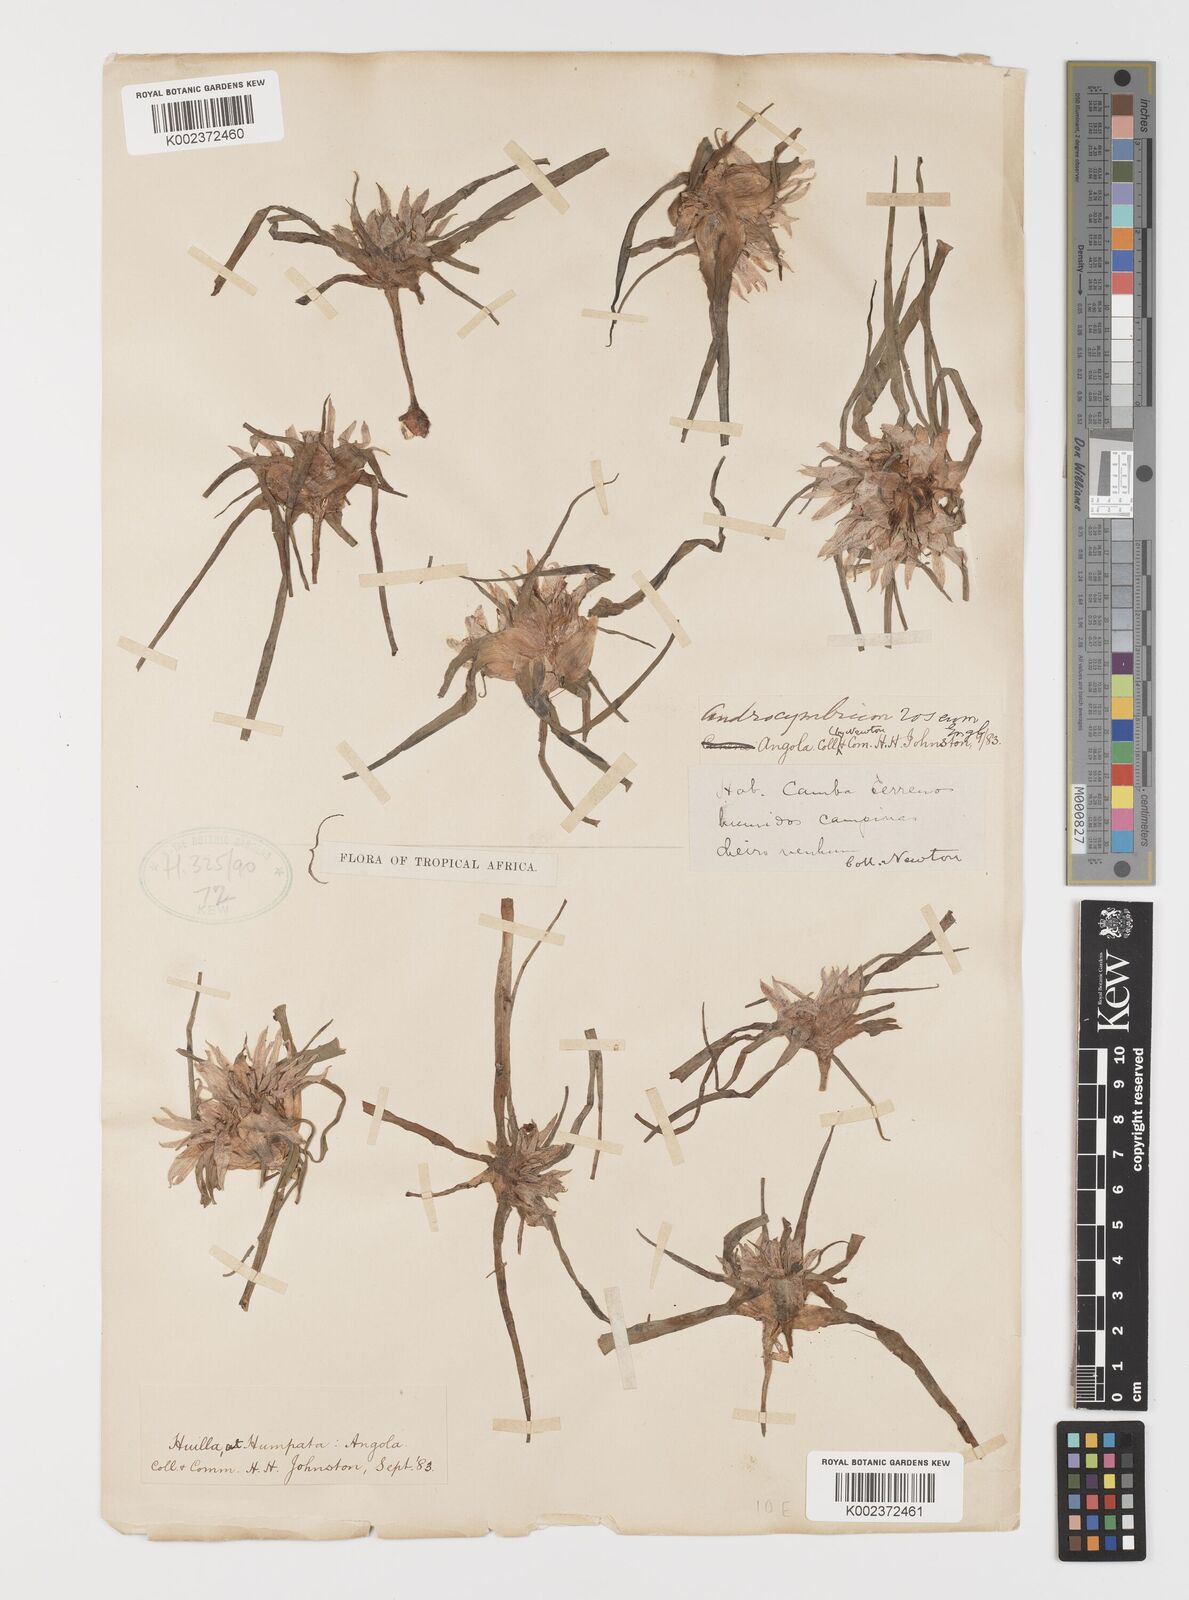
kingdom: Plantae
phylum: Tracheophyta
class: Liliopsida
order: Liliales
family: Colchicaceae
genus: Colchicum
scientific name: Colchicum roseum
